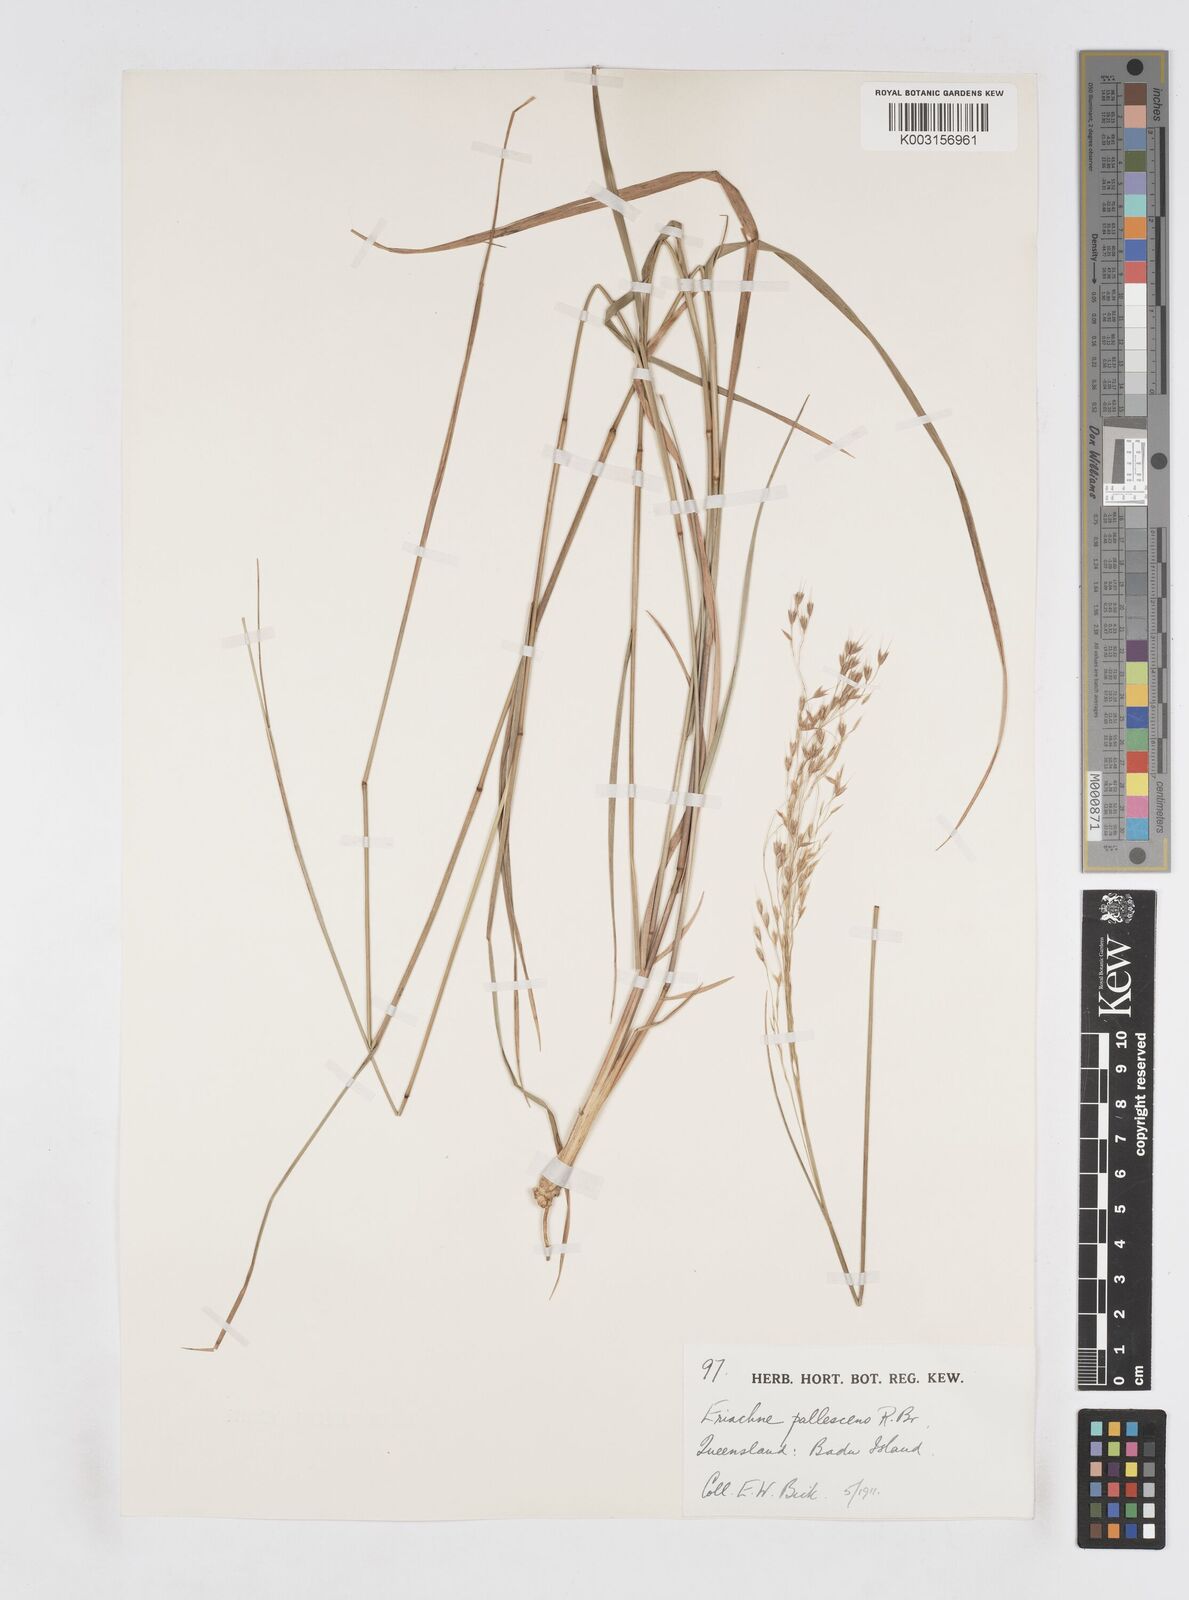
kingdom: Plantae
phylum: Tracheophyta
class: Liliopsida
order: Poales
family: Poaceae
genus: Eriachne
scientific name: Eriachne pallescens
